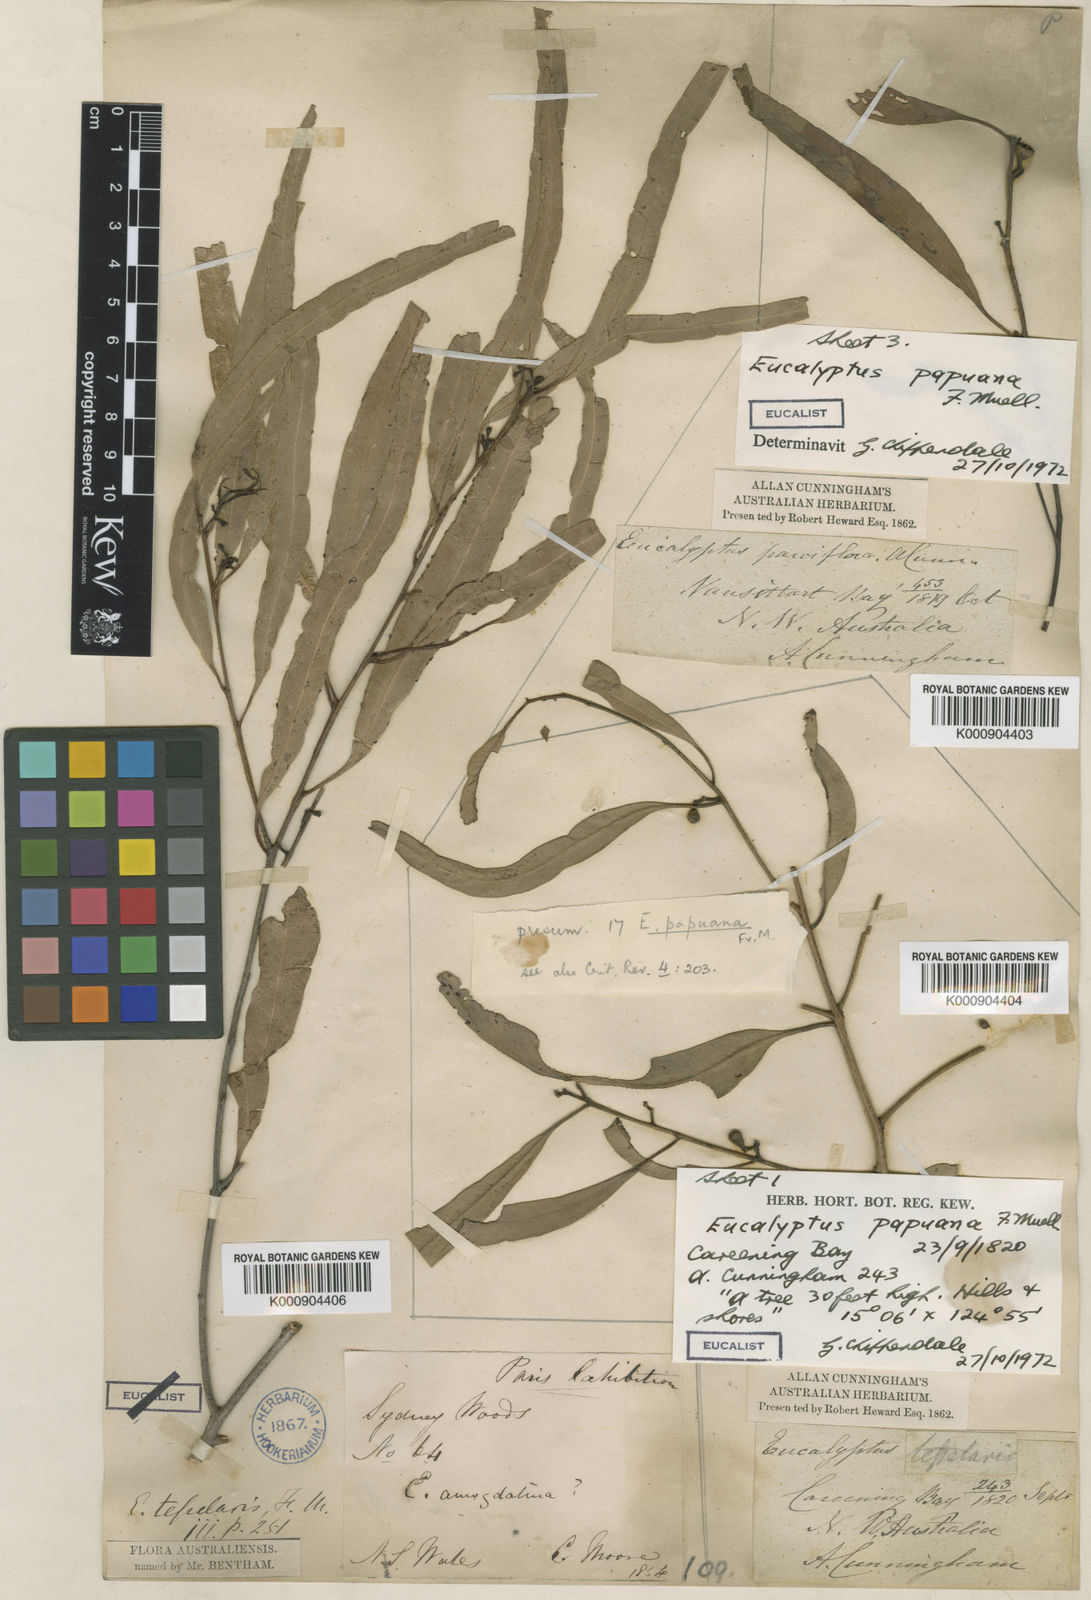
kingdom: Plantae
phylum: Tracheophyta
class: Magnoliopsida
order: Myrtales
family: Myrtaceae
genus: Corymbia
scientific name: Corymbia clavigera
